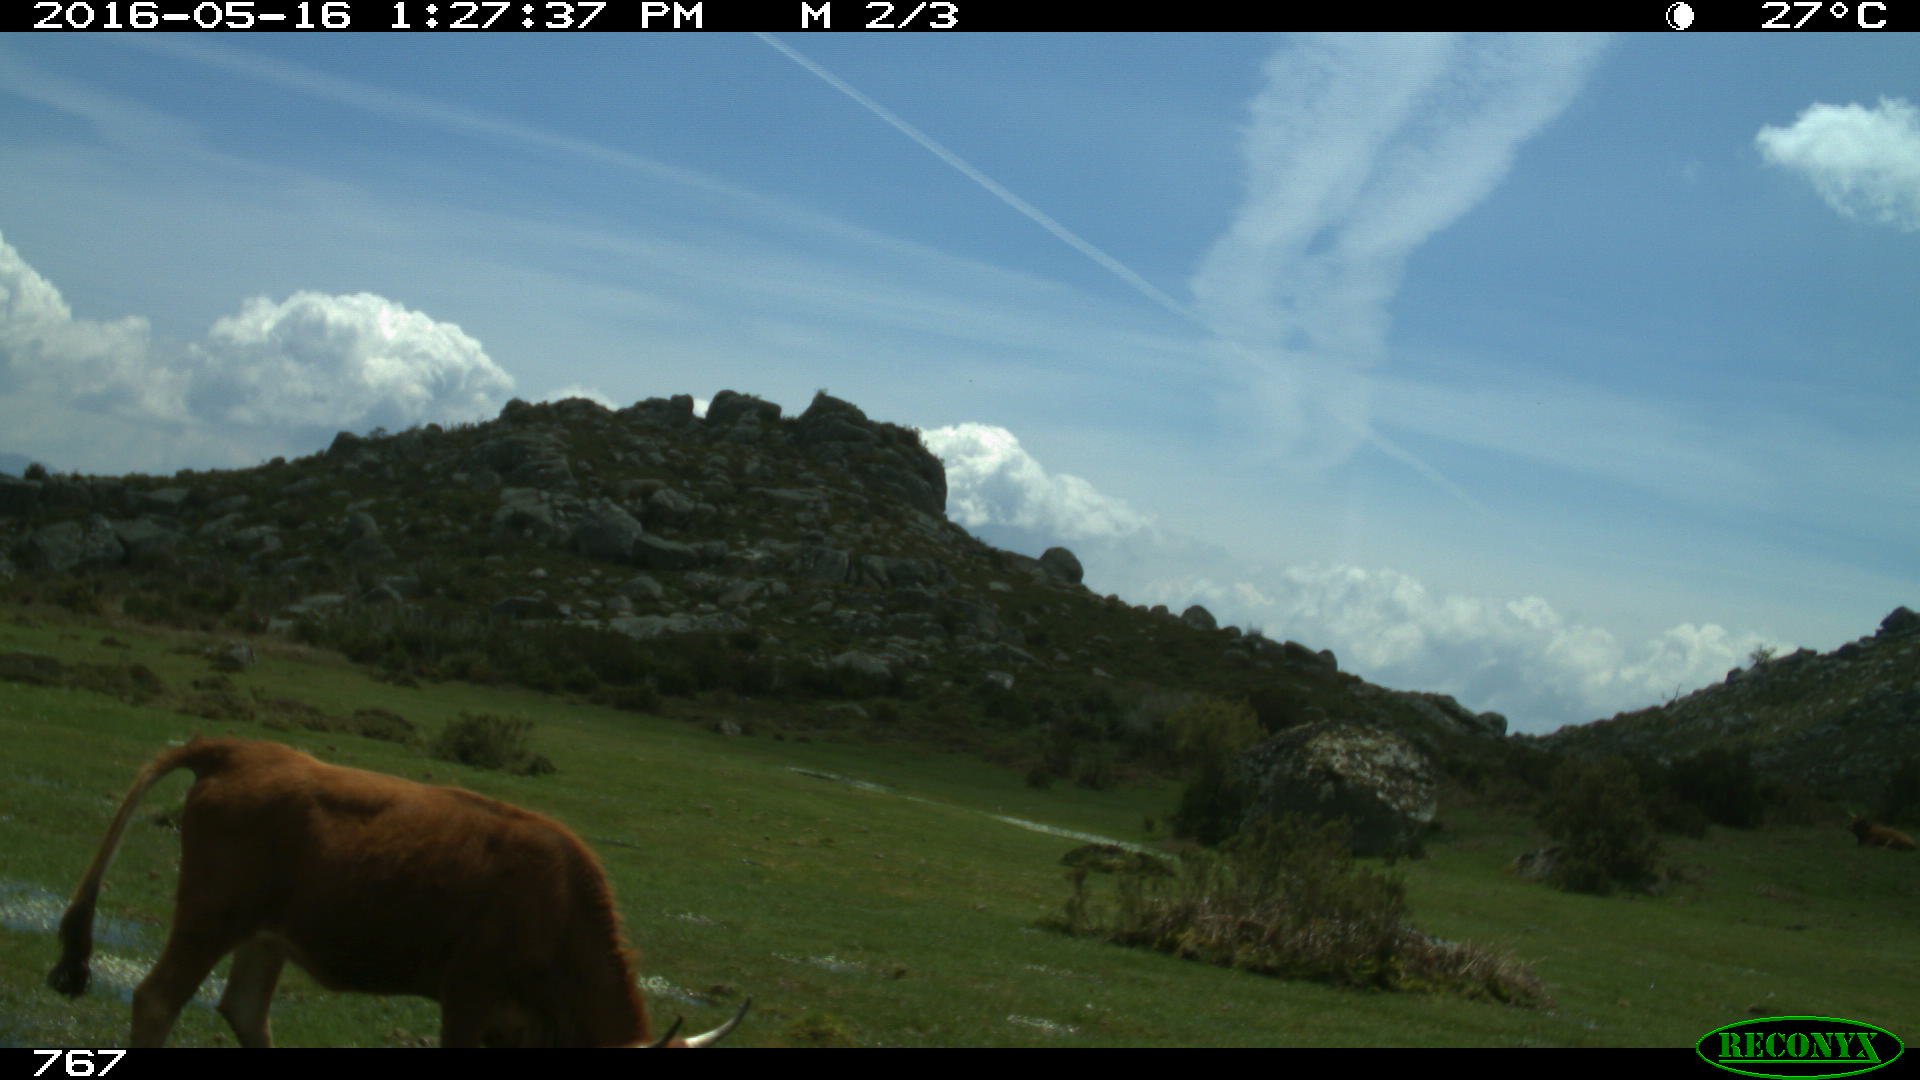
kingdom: Animalia
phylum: Chordata
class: Mammalia
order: Artiodactyla
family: Bovidae
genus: Bos
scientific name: Bos taurus
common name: Domesticated cattle
